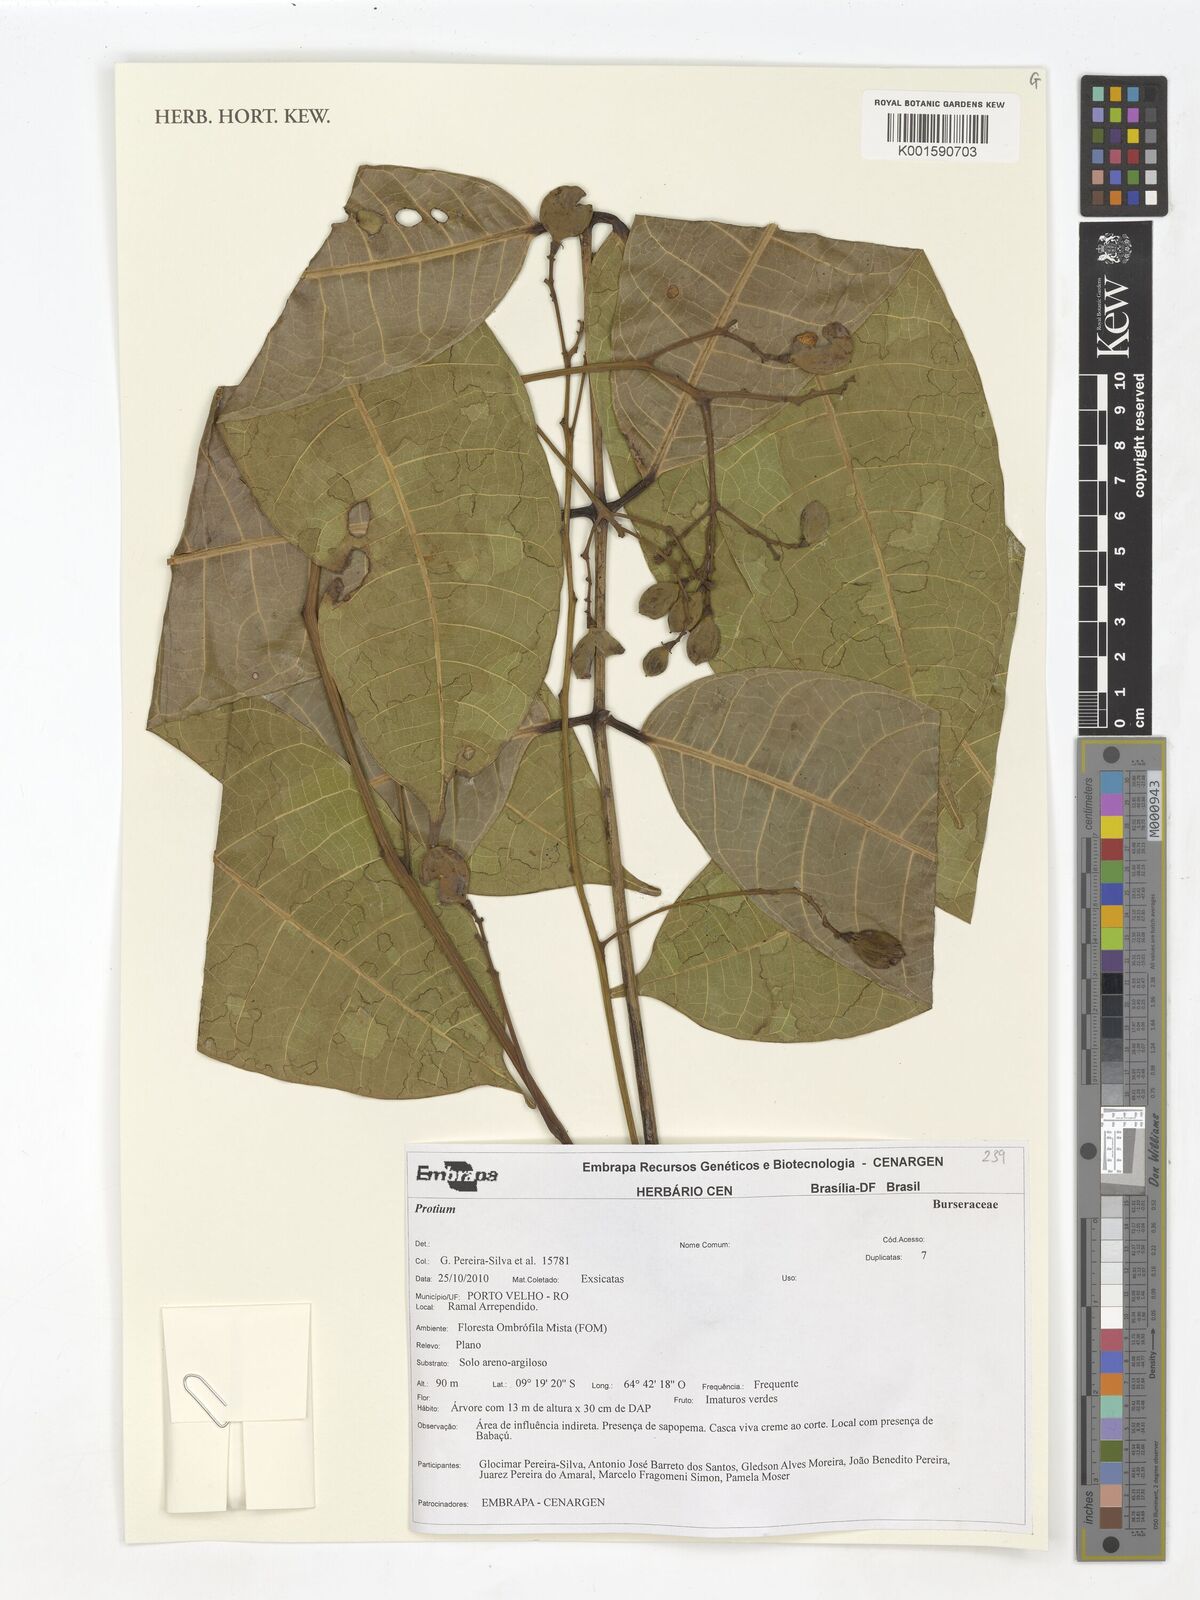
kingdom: Plantae
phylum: Tracheophyta
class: Magnoliopsida
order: Sapindales
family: Burseraceae
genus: Protium
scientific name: Protium
